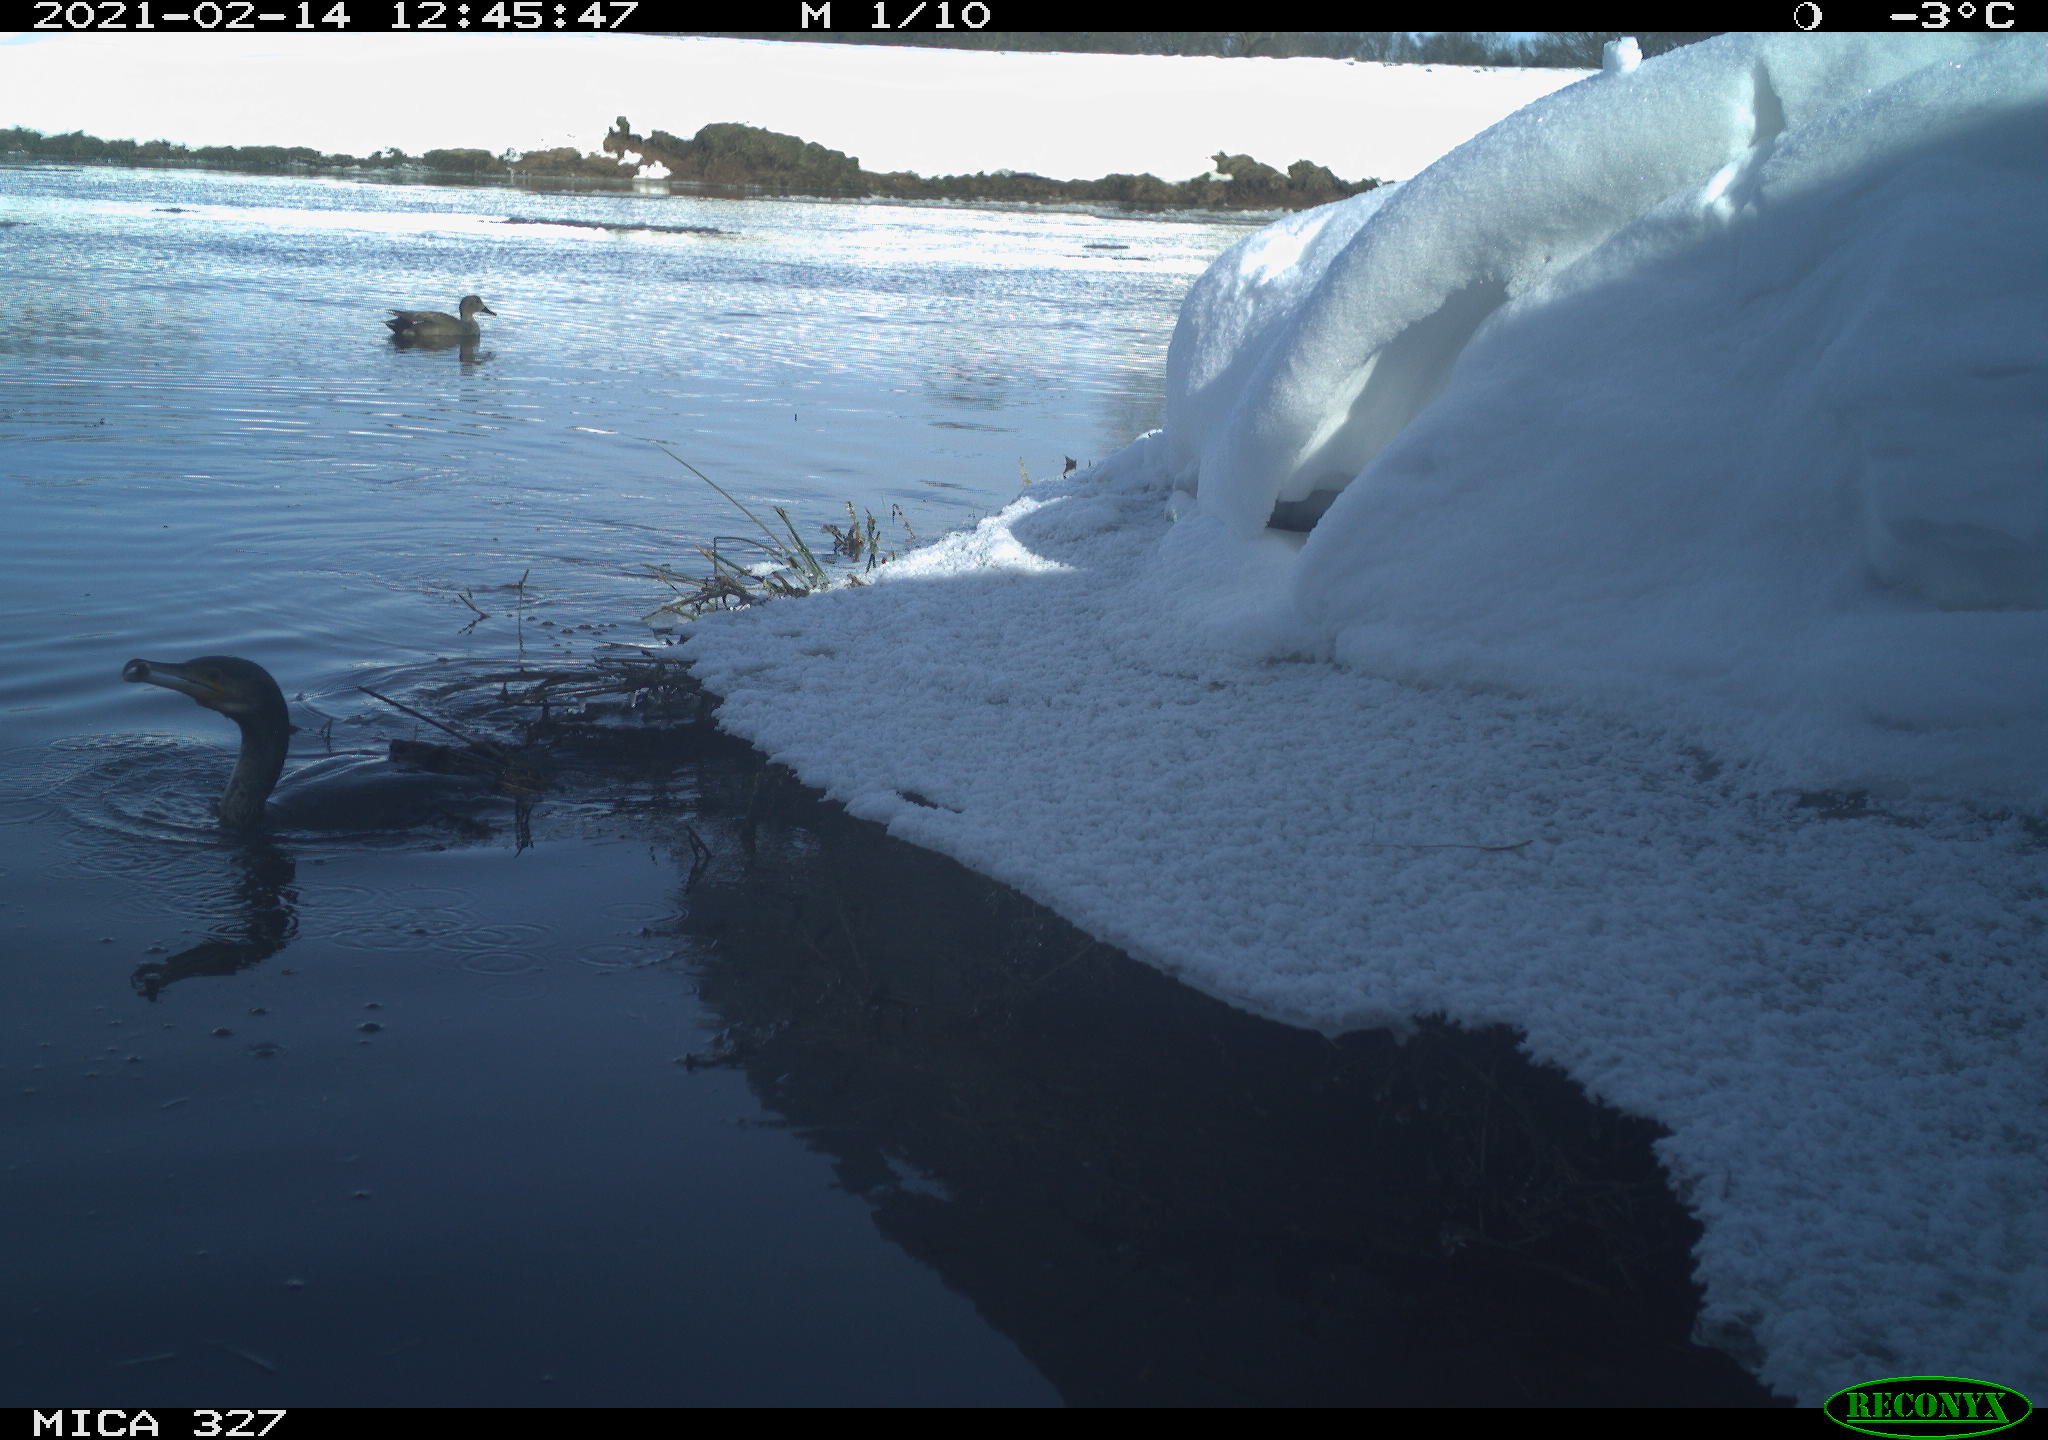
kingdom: Animalia
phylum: Chordata
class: Aves
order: Suliformes
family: Phalacrocoracidae
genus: Phalacrocorax
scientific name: Phalacrocorax carbo
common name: Great cormorant
